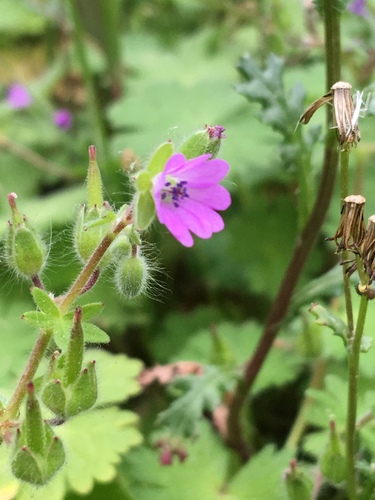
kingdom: Plantae
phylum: Tracheophyta
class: Magnoliopsida
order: Geraniales
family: Geraniaceae
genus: Geranium
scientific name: Geranium molle
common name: Dove's-foot crane's-bill
